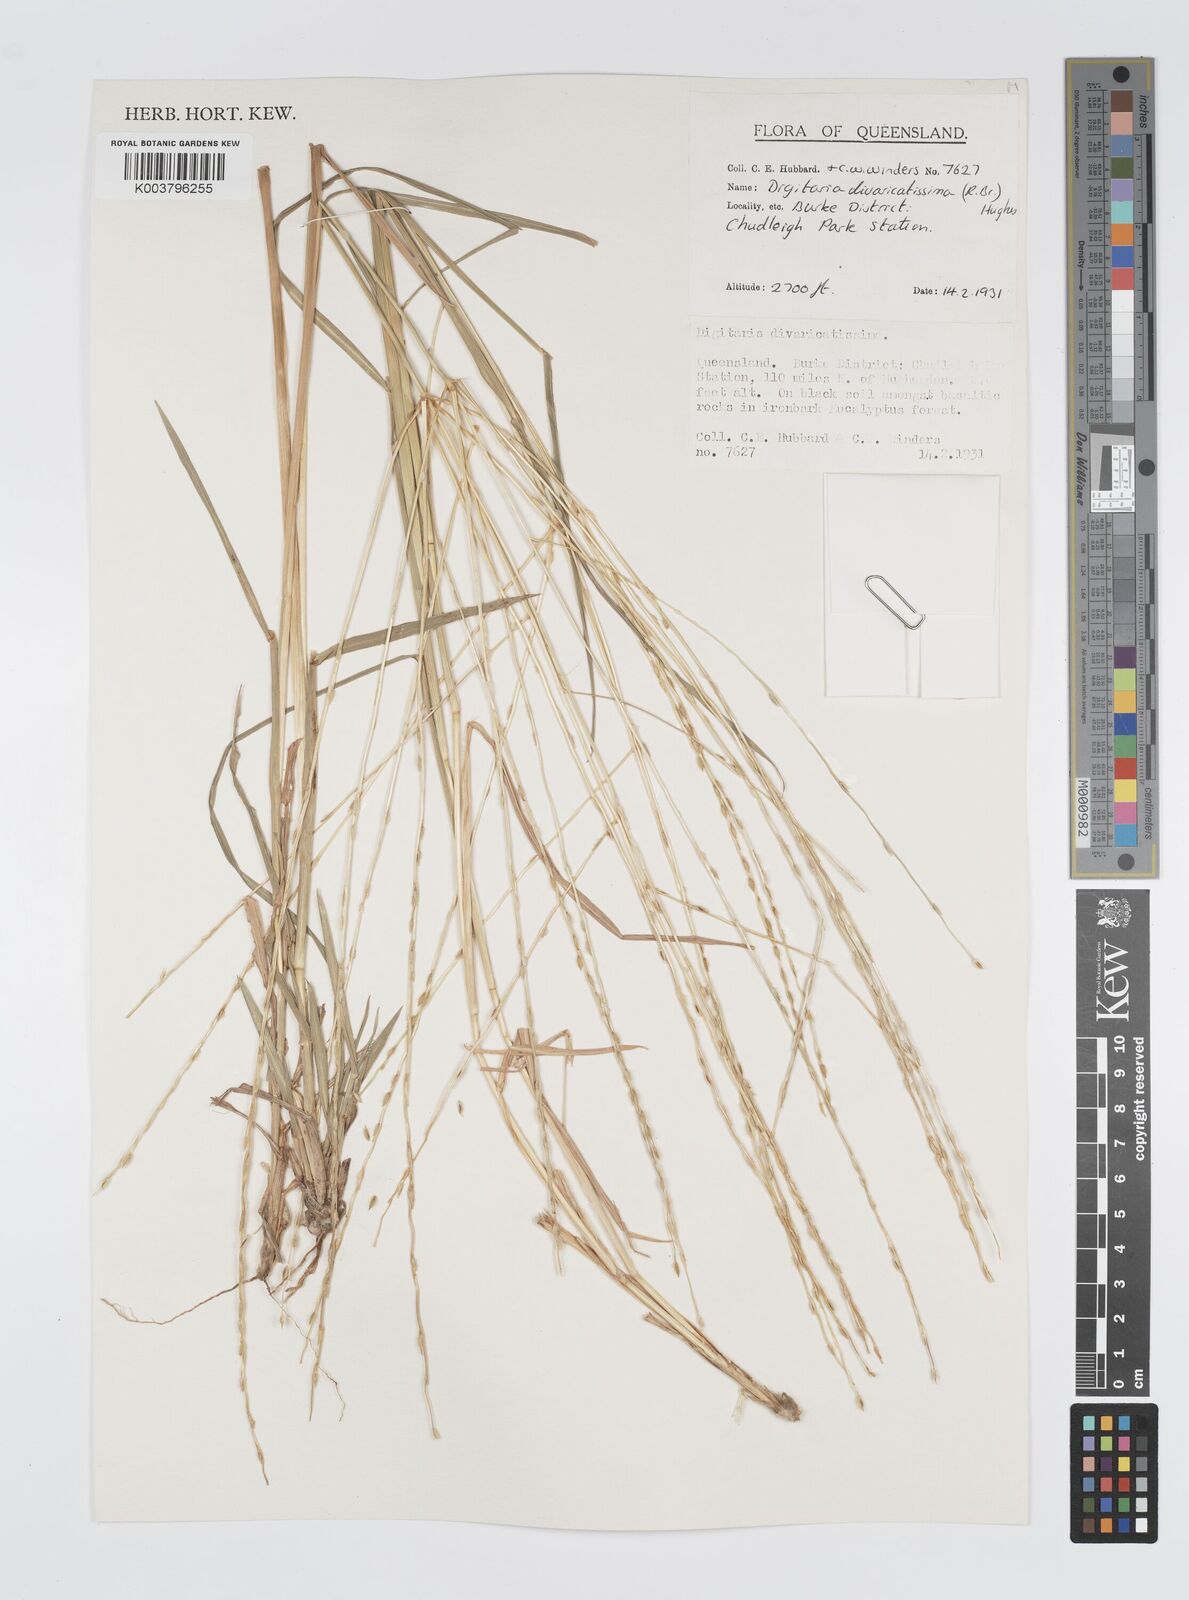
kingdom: Plantae
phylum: Tracheophyta
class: Liliopsida
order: Poales
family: Poaceae
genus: Digitaria
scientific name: Digitaria divaricatissima
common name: Crabgrass
